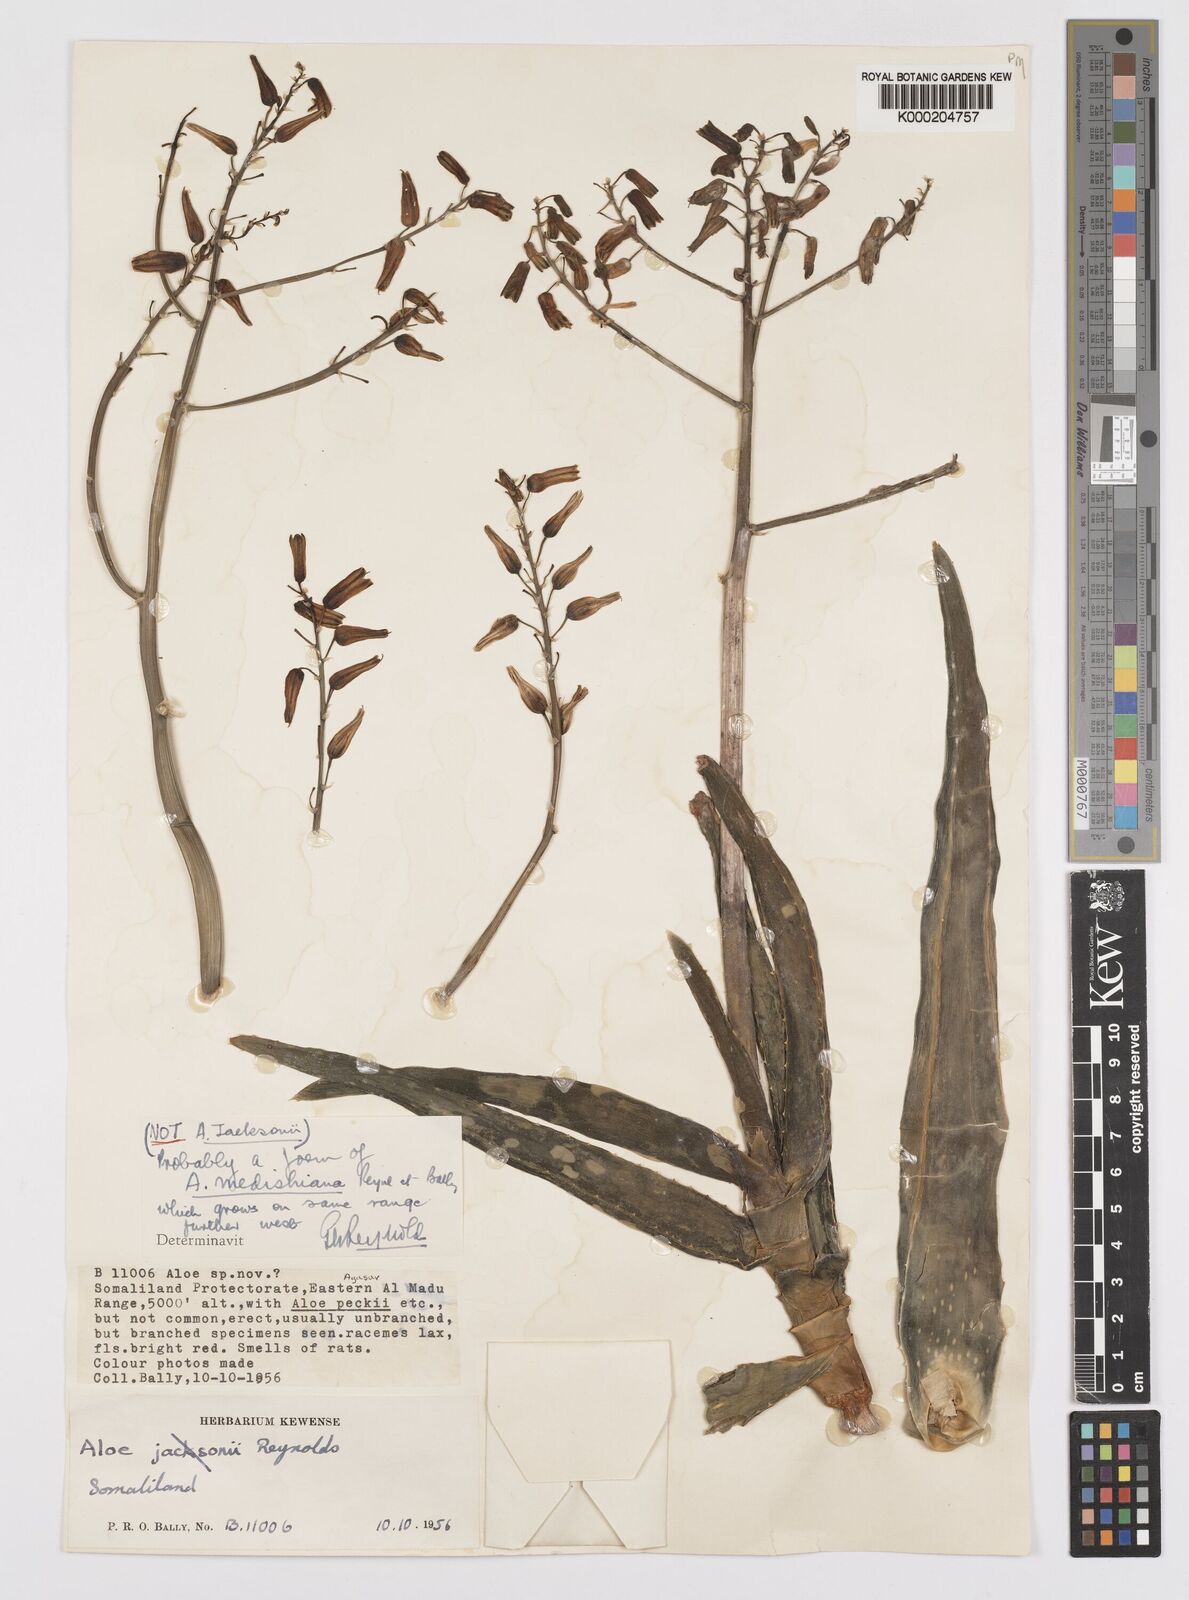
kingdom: Plantae
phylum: Tracheophyta
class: Liliopsida
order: Asparagales
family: Asphodelaceae
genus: Aloe
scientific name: Aloe medishiana
